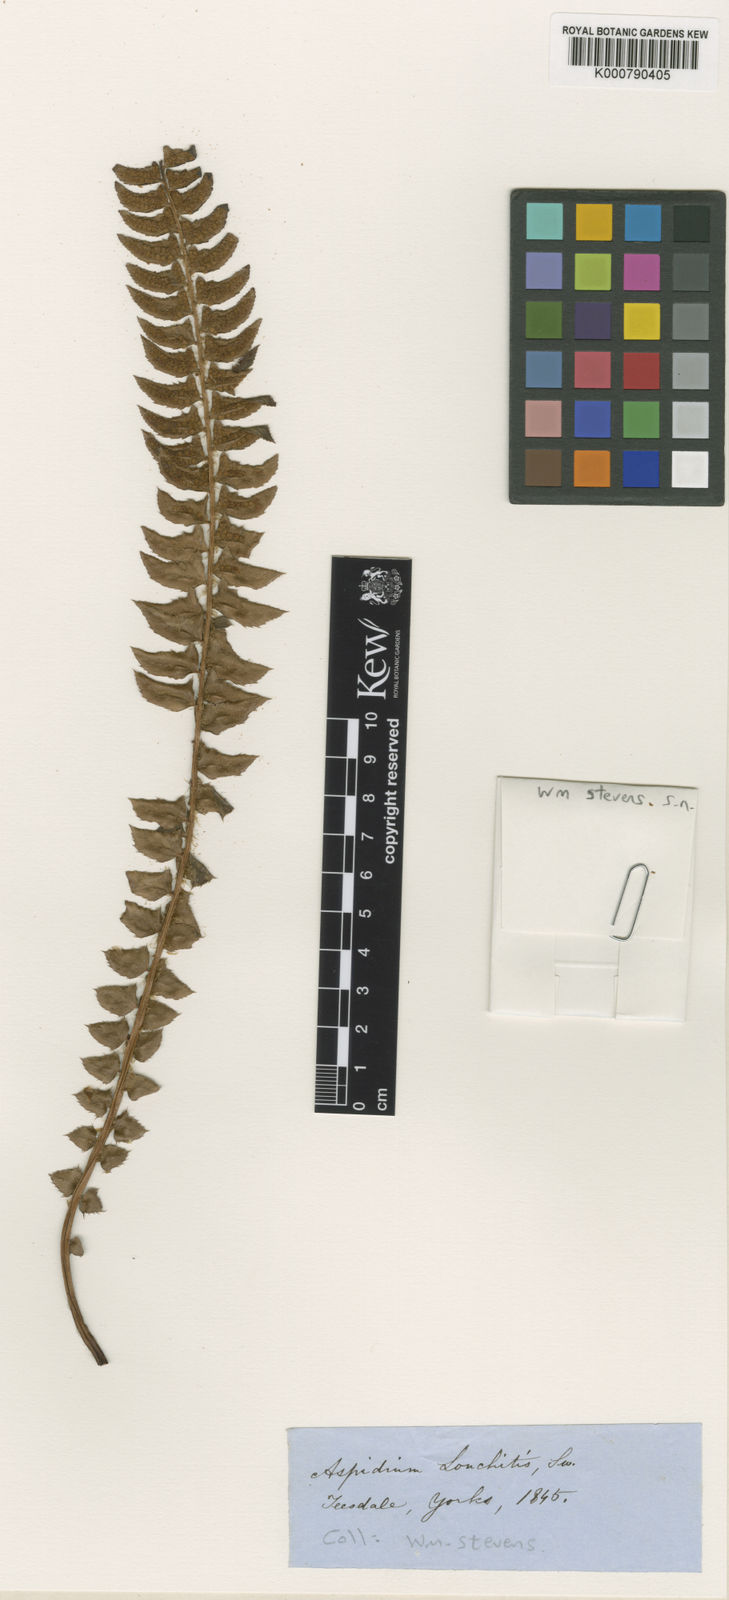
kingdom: Plantae
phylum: Tracheophyta
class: Polypodiopsida
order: Polypodiales
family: Dryopteridaceae
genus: Polystichum
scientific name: Polystichum lonchitis
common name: Holly fern
